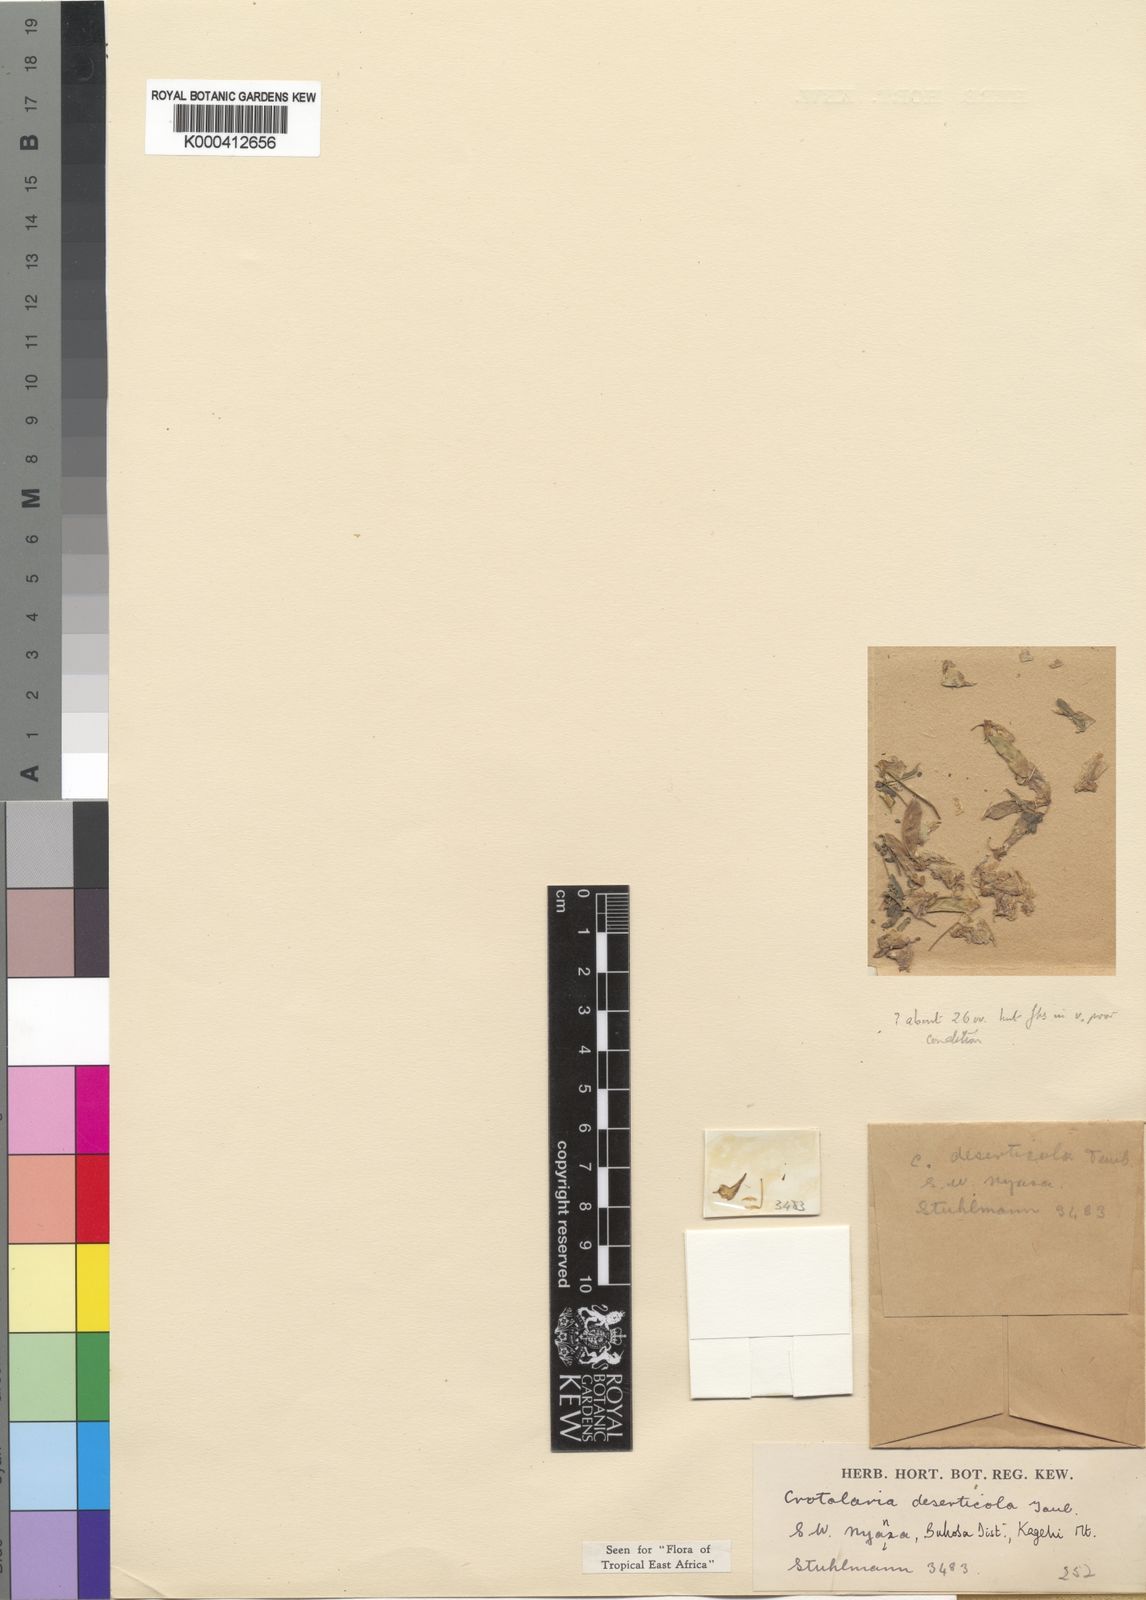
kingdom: Plantae
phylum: Tracheophyta
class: Magnoliopsida
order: Fabales
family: Fabaceae
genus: Crotalaria
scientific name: Crotalaria deserticola
